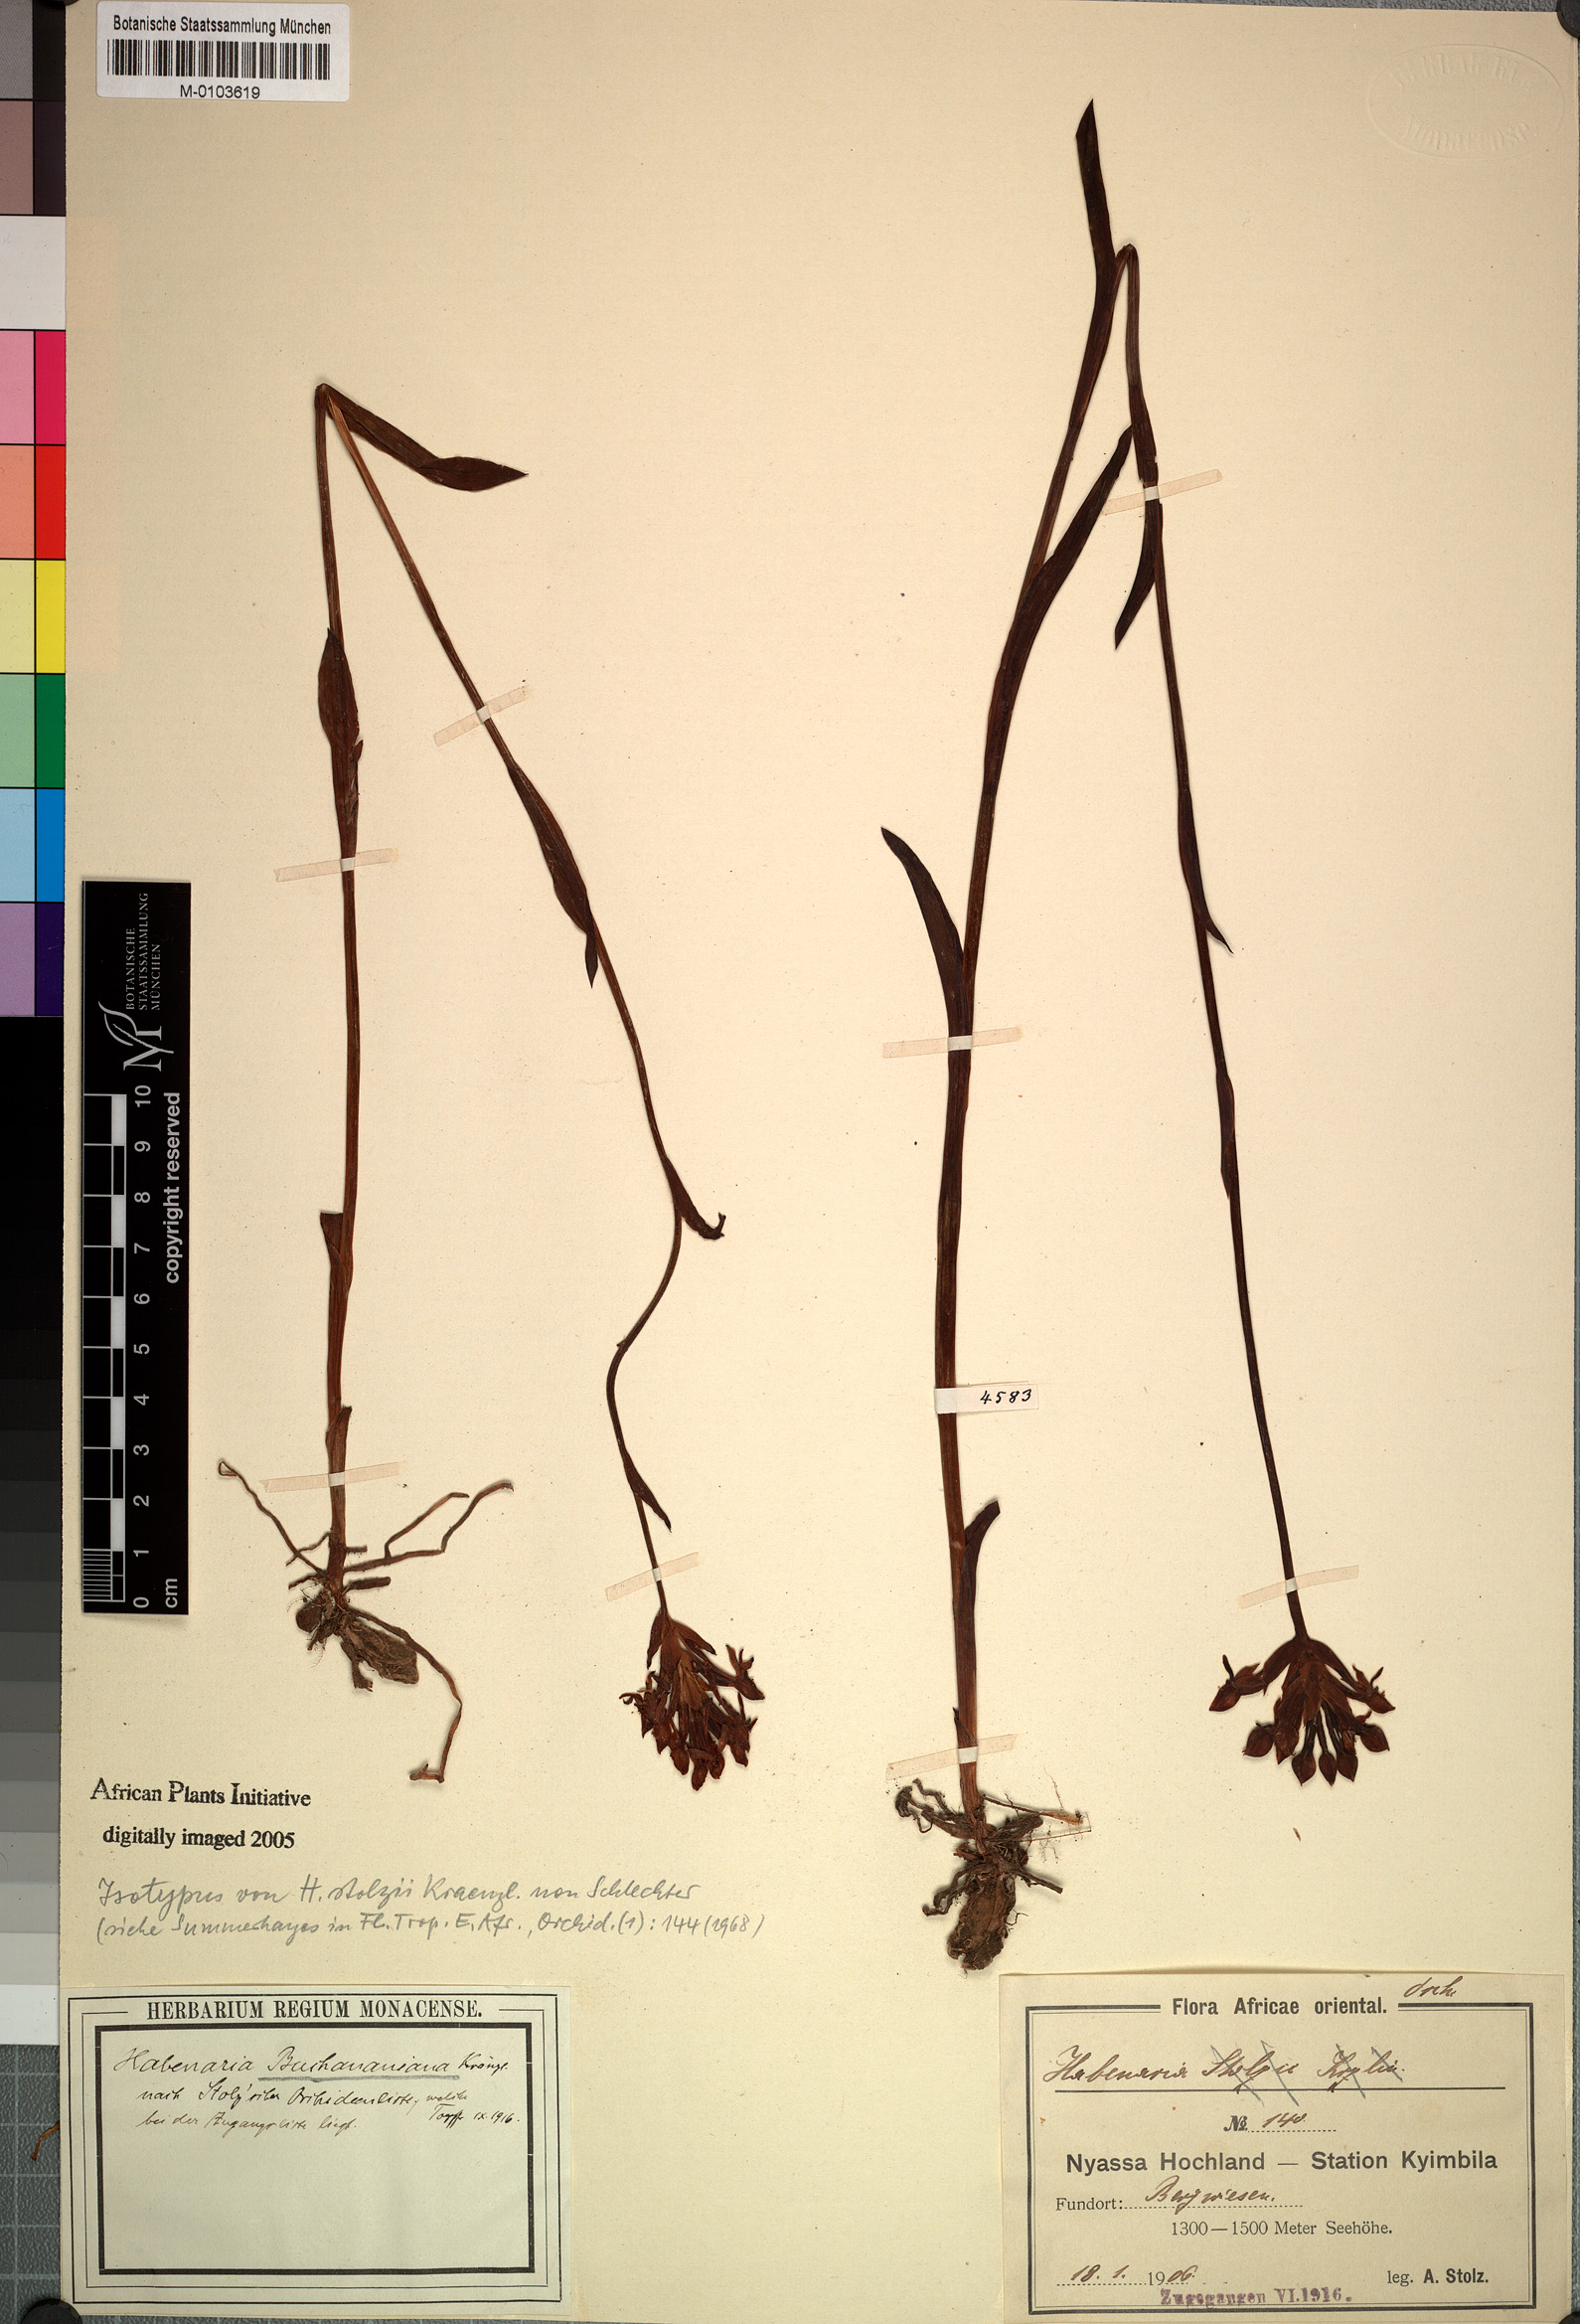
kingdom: Plantae
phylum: Tracheophyta
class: Liliopsida
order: Asparagales
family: Orchidaceae
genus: Platycoryne
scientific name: Platycoryne buchananiana
